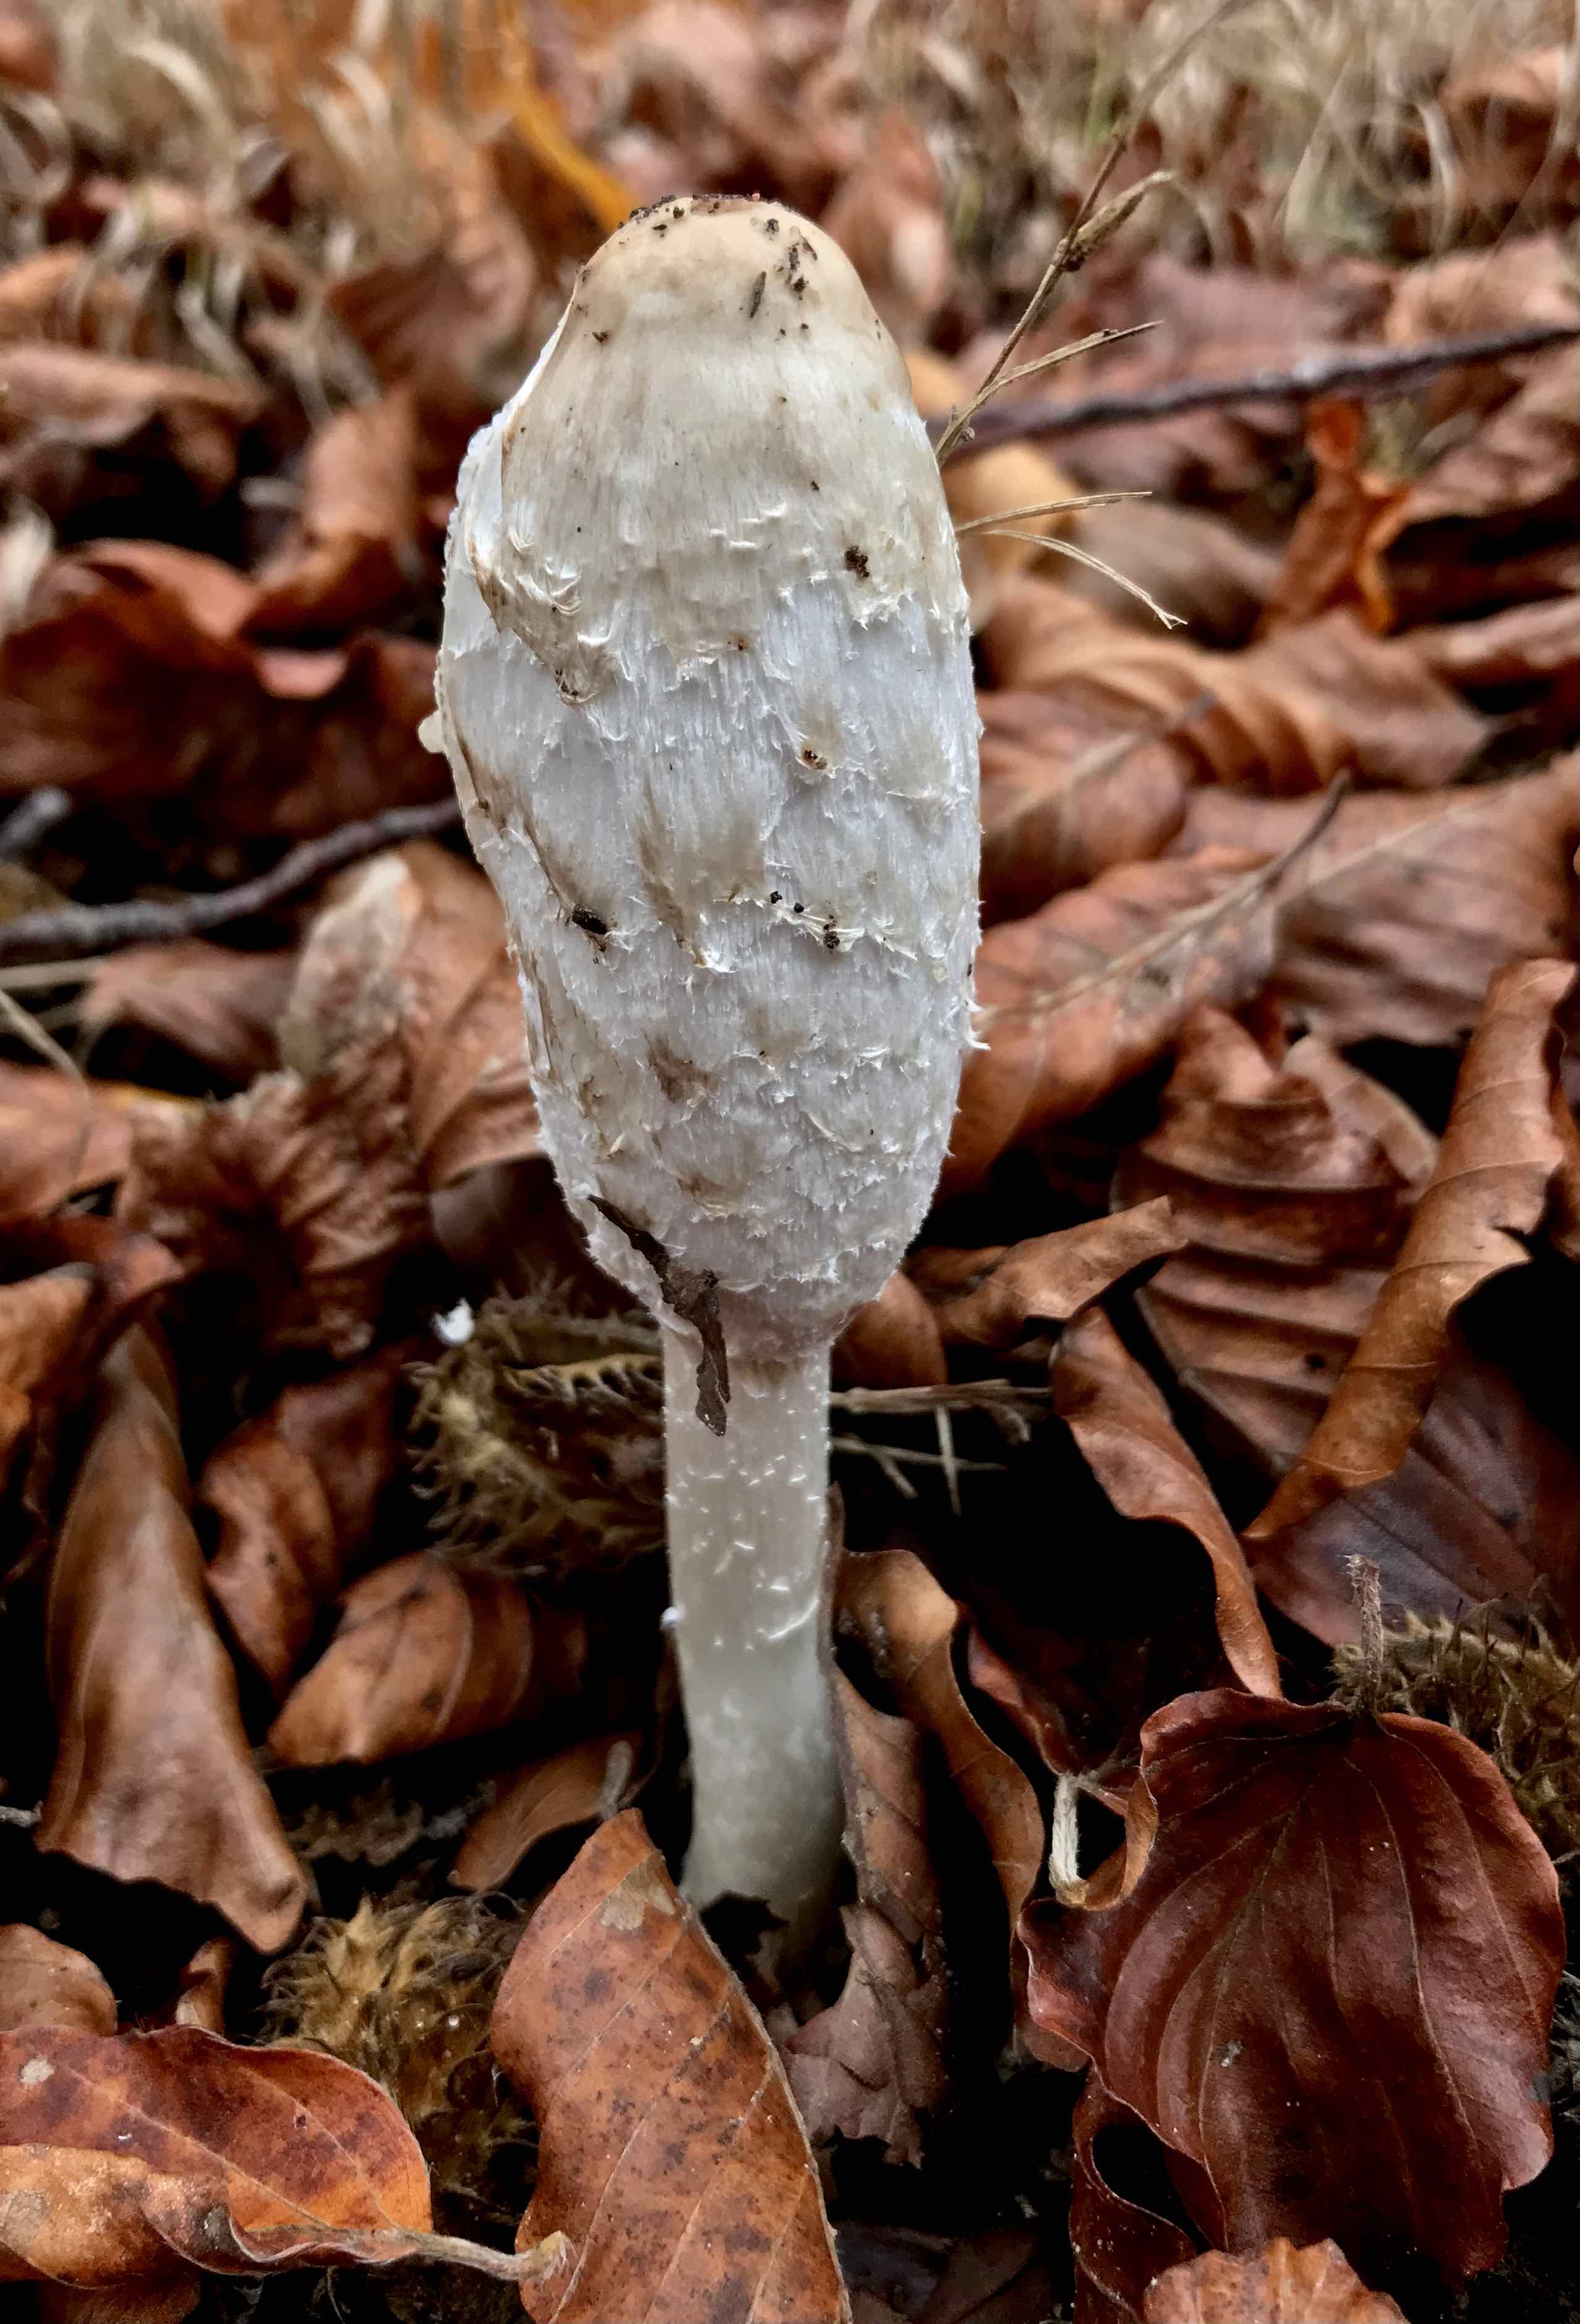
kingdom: Fungi
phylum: Basidiomycota
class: Agaricomycetes
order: Agaricales
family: Agaricaceae
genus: Coprinus
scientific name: Coprinus comatus
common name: stor parykhat
